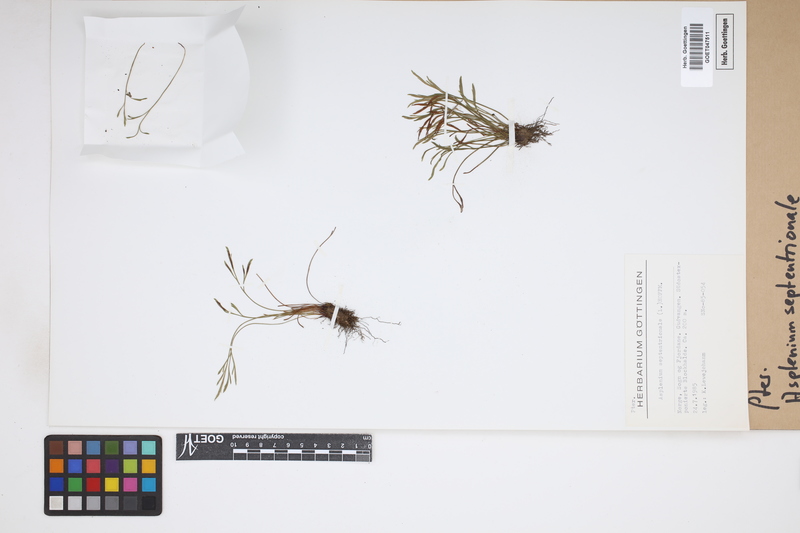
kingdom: Plantae
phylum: Tracheophyta
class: Polypodiopsida
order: Polypodiales
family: Aspleniaceae
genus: Asplenium
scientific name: Asplenium septentrionale
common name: Forked spleenwort
